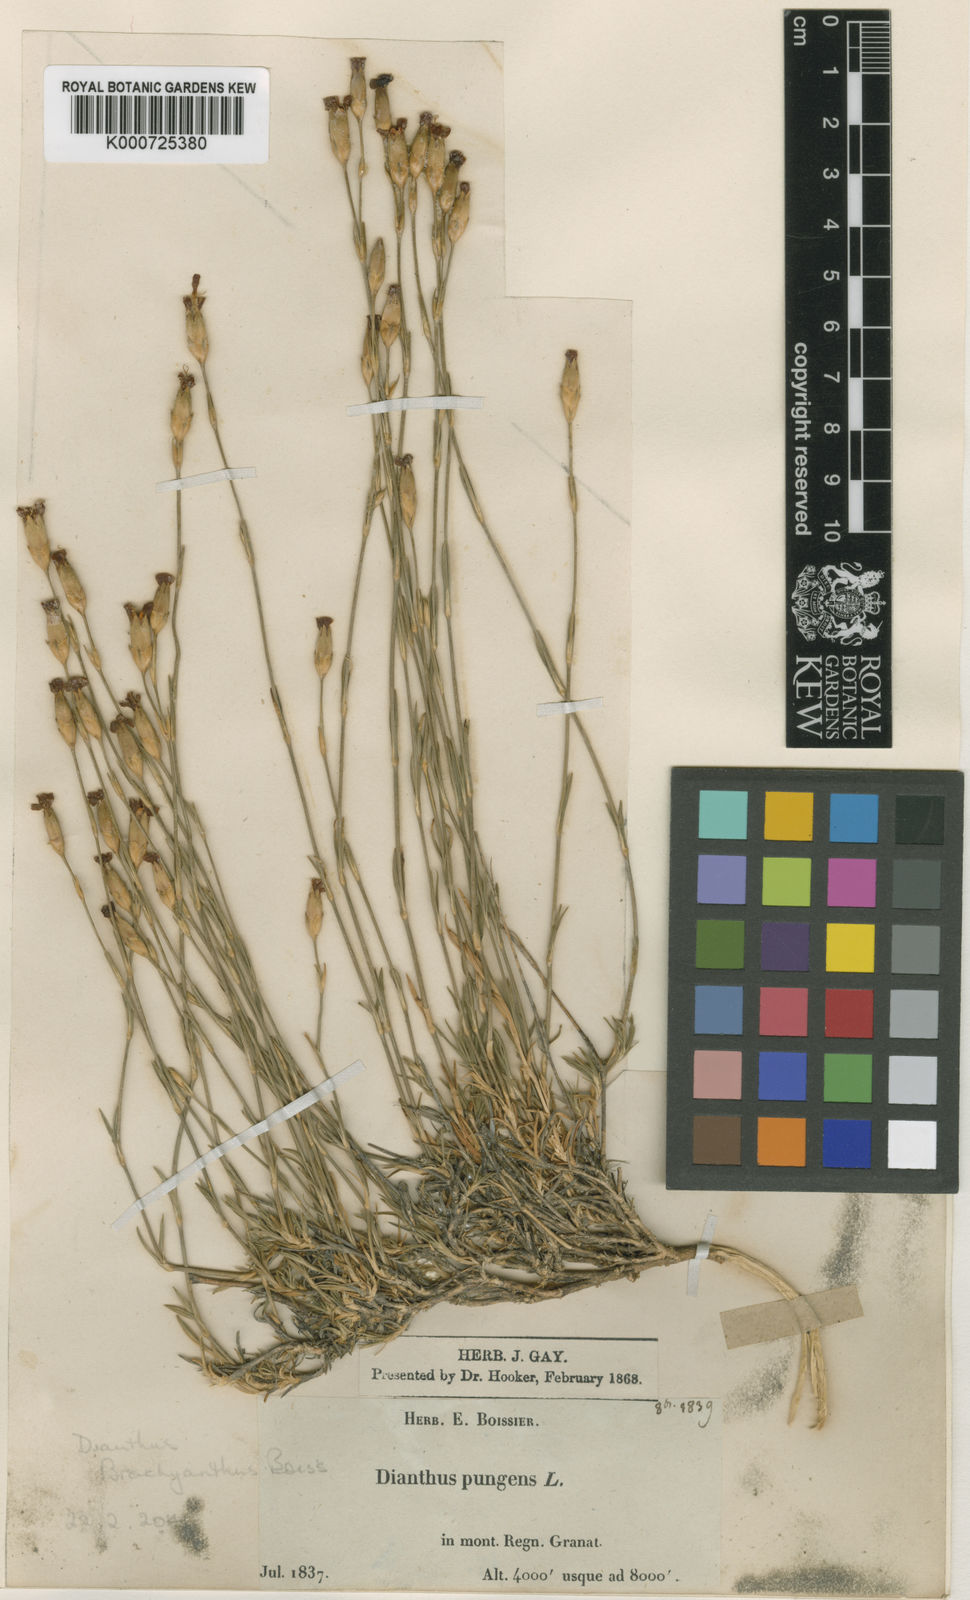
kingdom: Plantae
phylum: Tracheophyta
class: Magnoliopsida
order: Caryophyllales
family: Caryophyllaceae
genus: Dianthus
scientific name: Dianthus pungens
